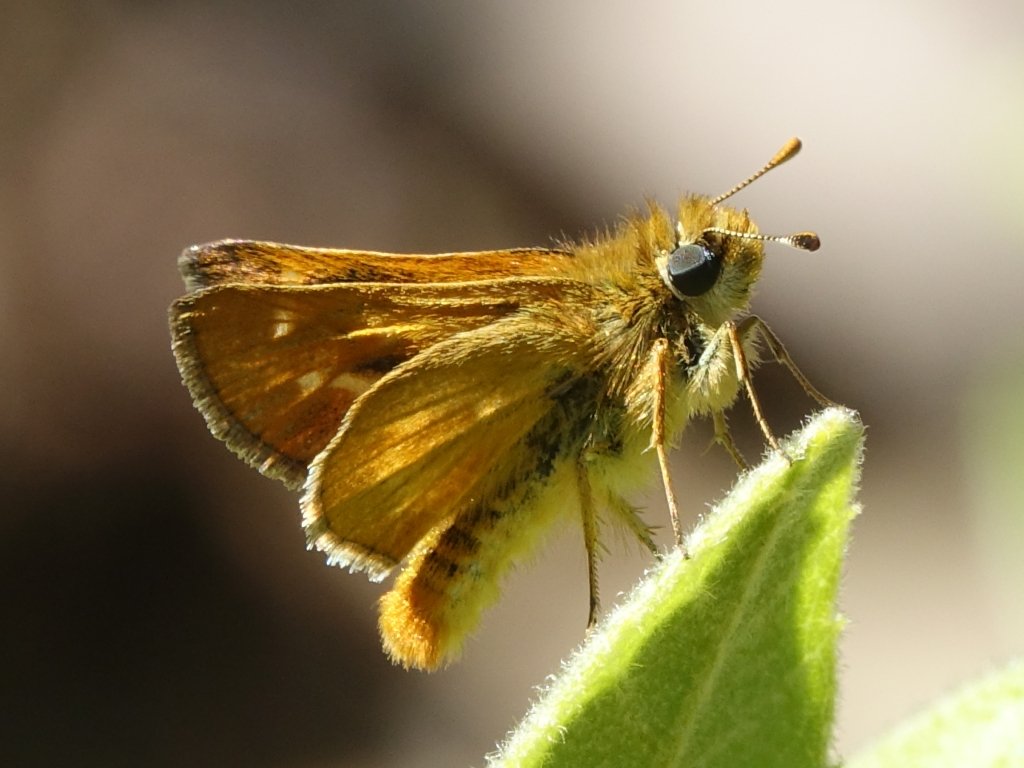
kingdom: Animalia
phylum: Arthropoda
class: Insecta
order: Lepidoptera
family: Hesperiidae
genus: Ochlodes
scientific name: Ochlodes agricola
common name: Rural Skipper
